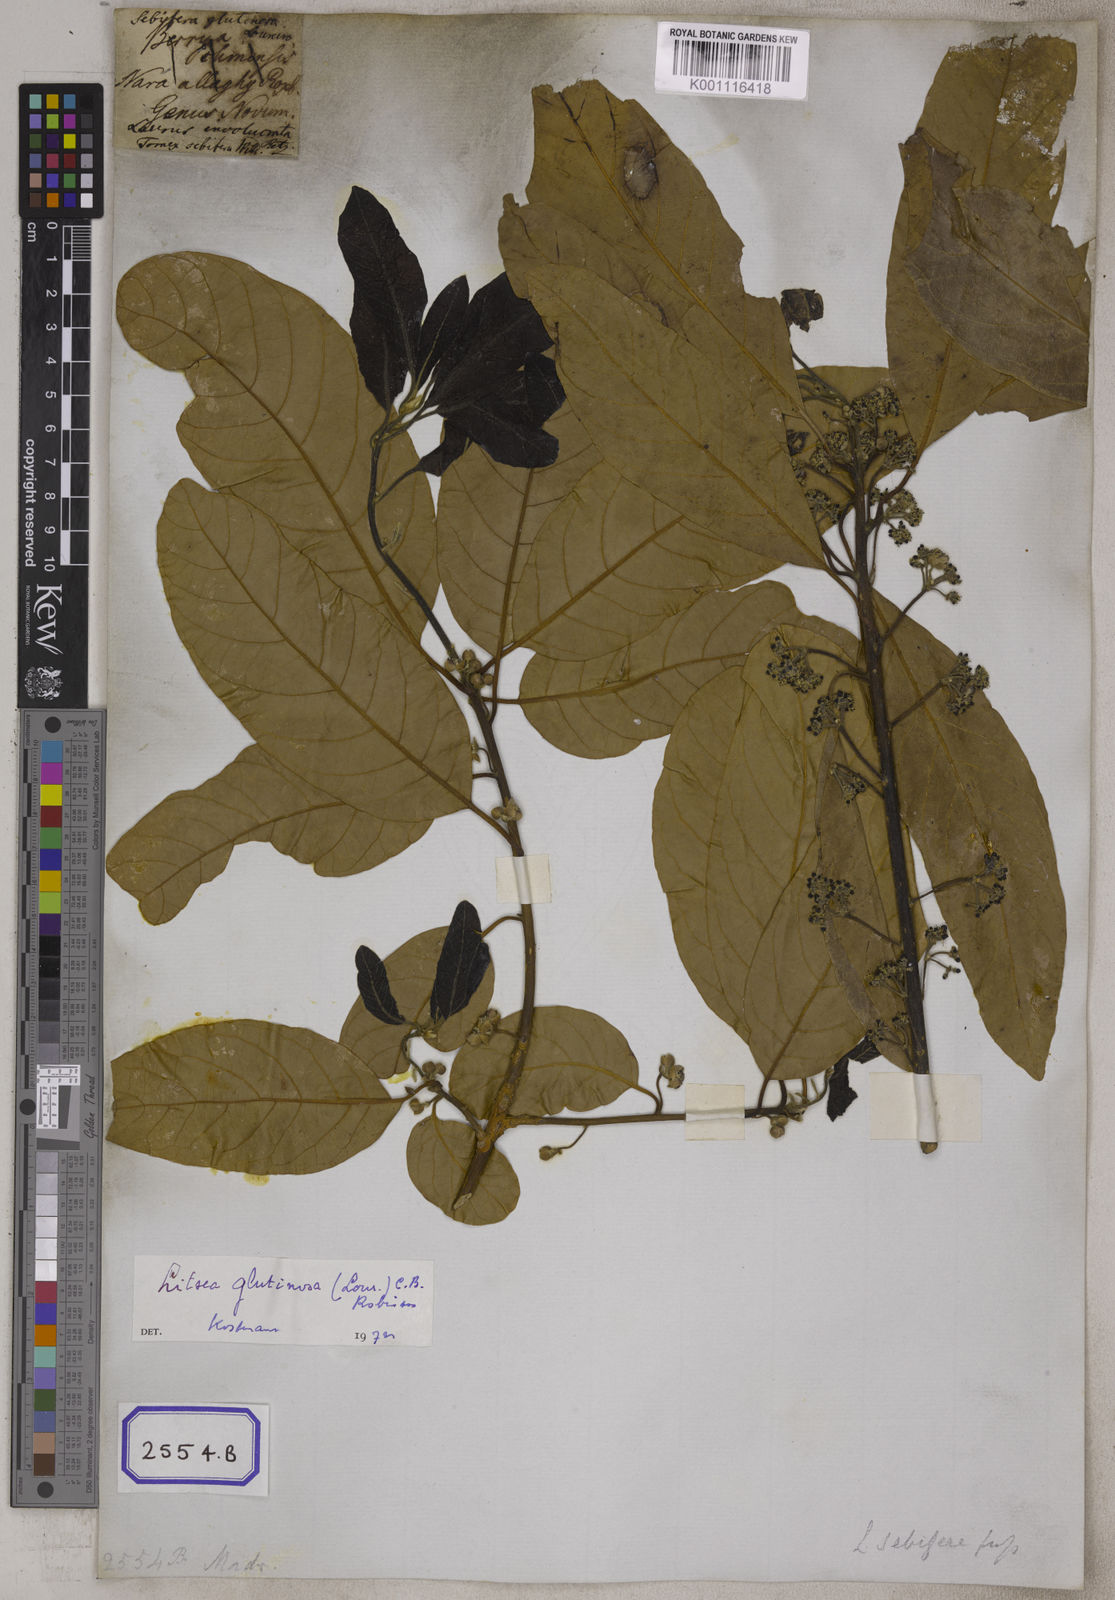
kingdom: Plantae
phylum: Tracheophyta
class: Magnoliopsida
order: Laurales
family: Lauraceae
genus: Litsea
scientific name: Litsea glutinosa
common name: Indian-laurel
